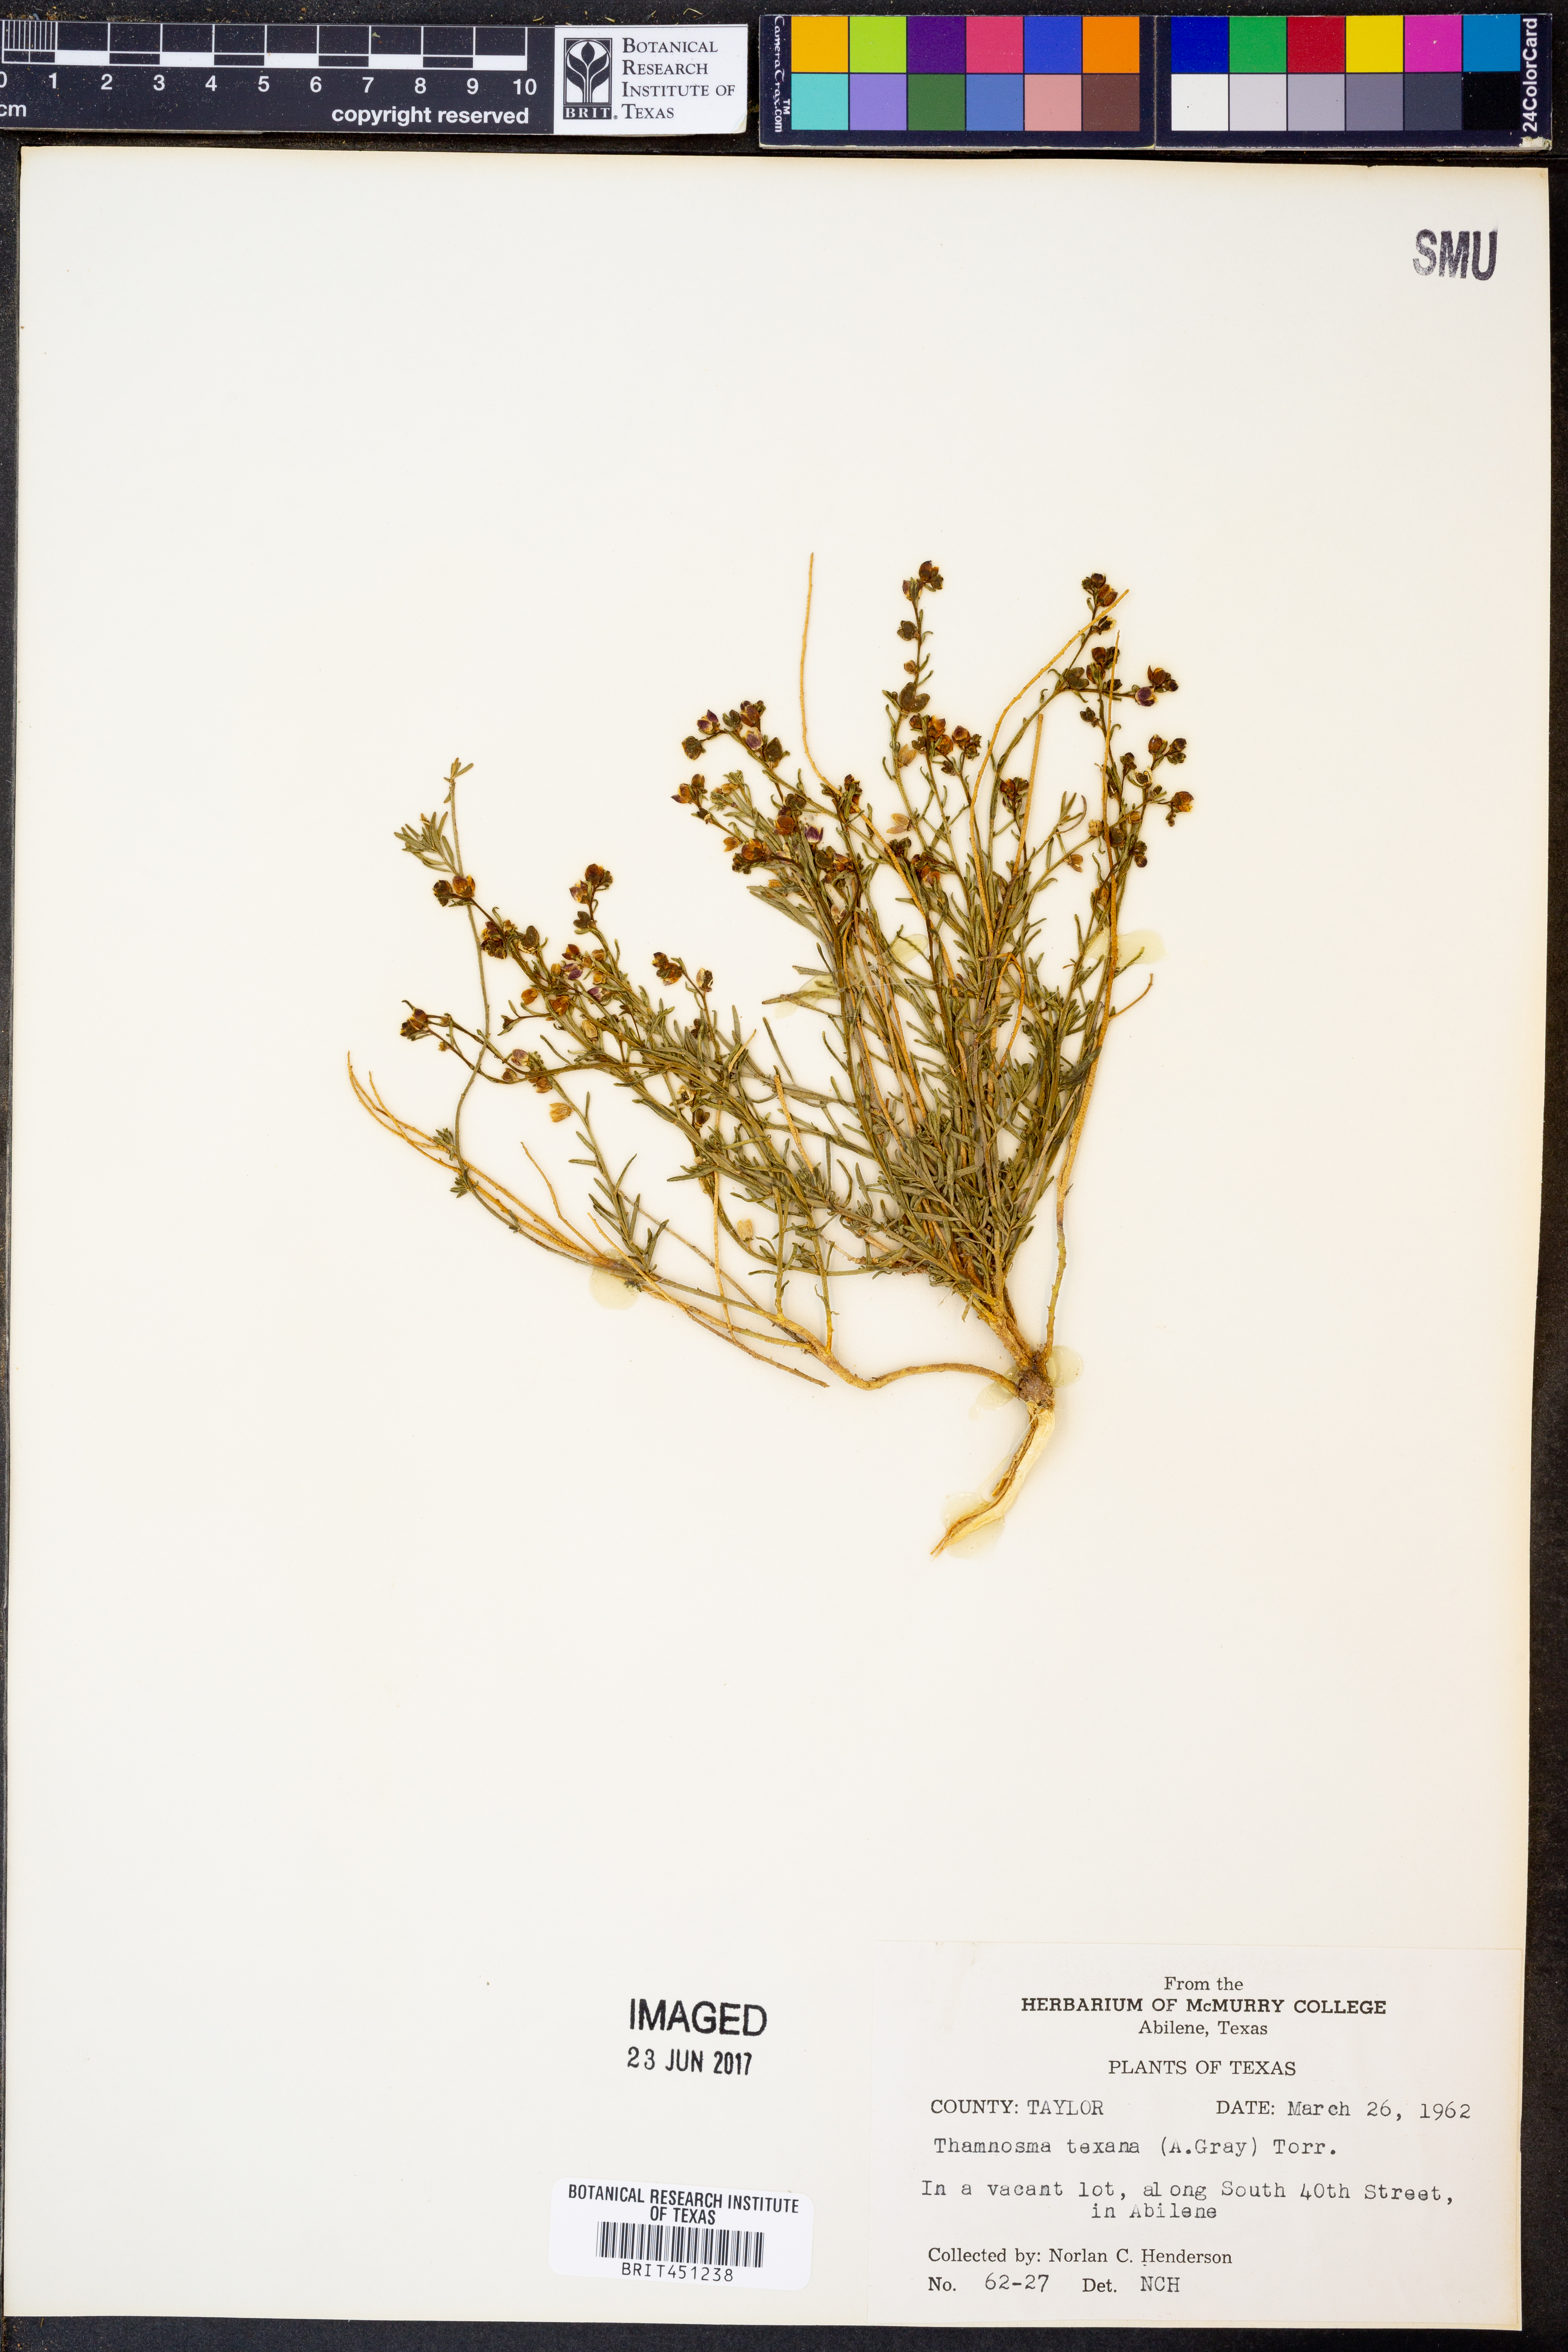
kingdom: Plantae
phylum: Tracheophyta
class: Magnoliopsida
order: Sapindales
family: Rutaceae
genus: Thamnosma
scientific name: Thamnosma texana
